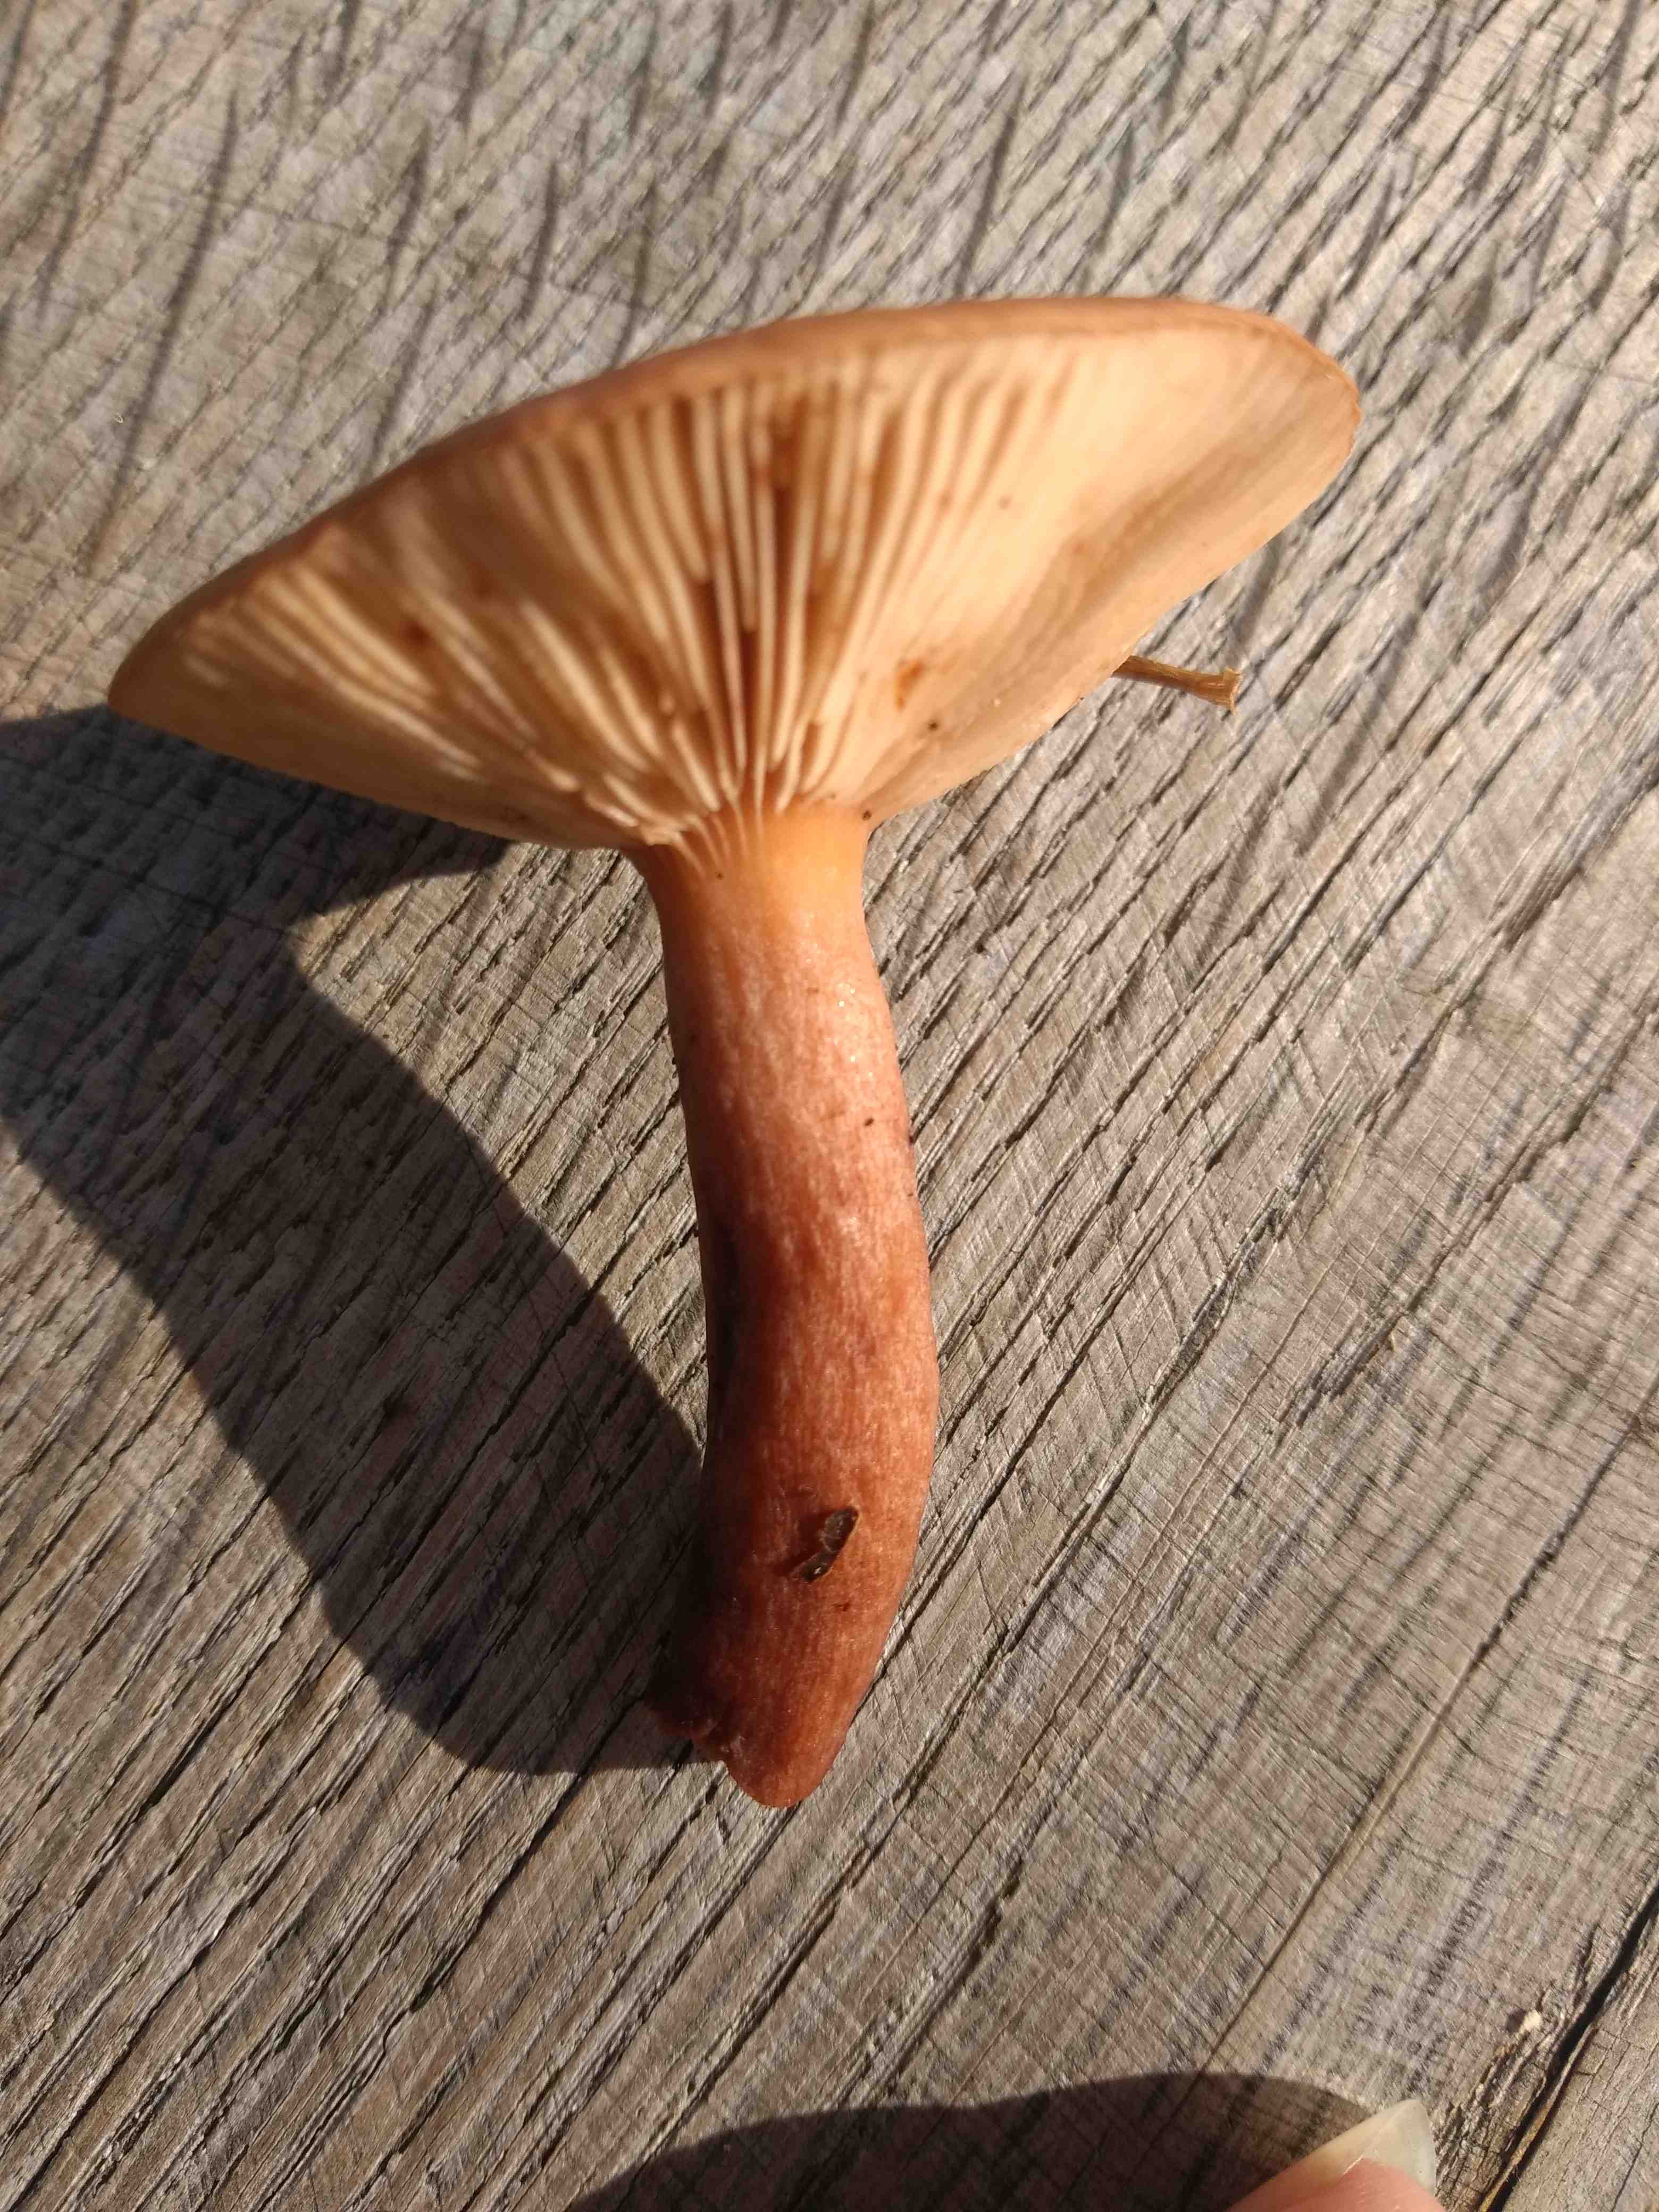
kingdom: Fungi
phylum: Basidiomycota
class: Agaricomycetes
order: Russulales
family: Russulaceae
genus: Lactarius
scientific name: Lactarius quietus
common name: ege-mælkehat
